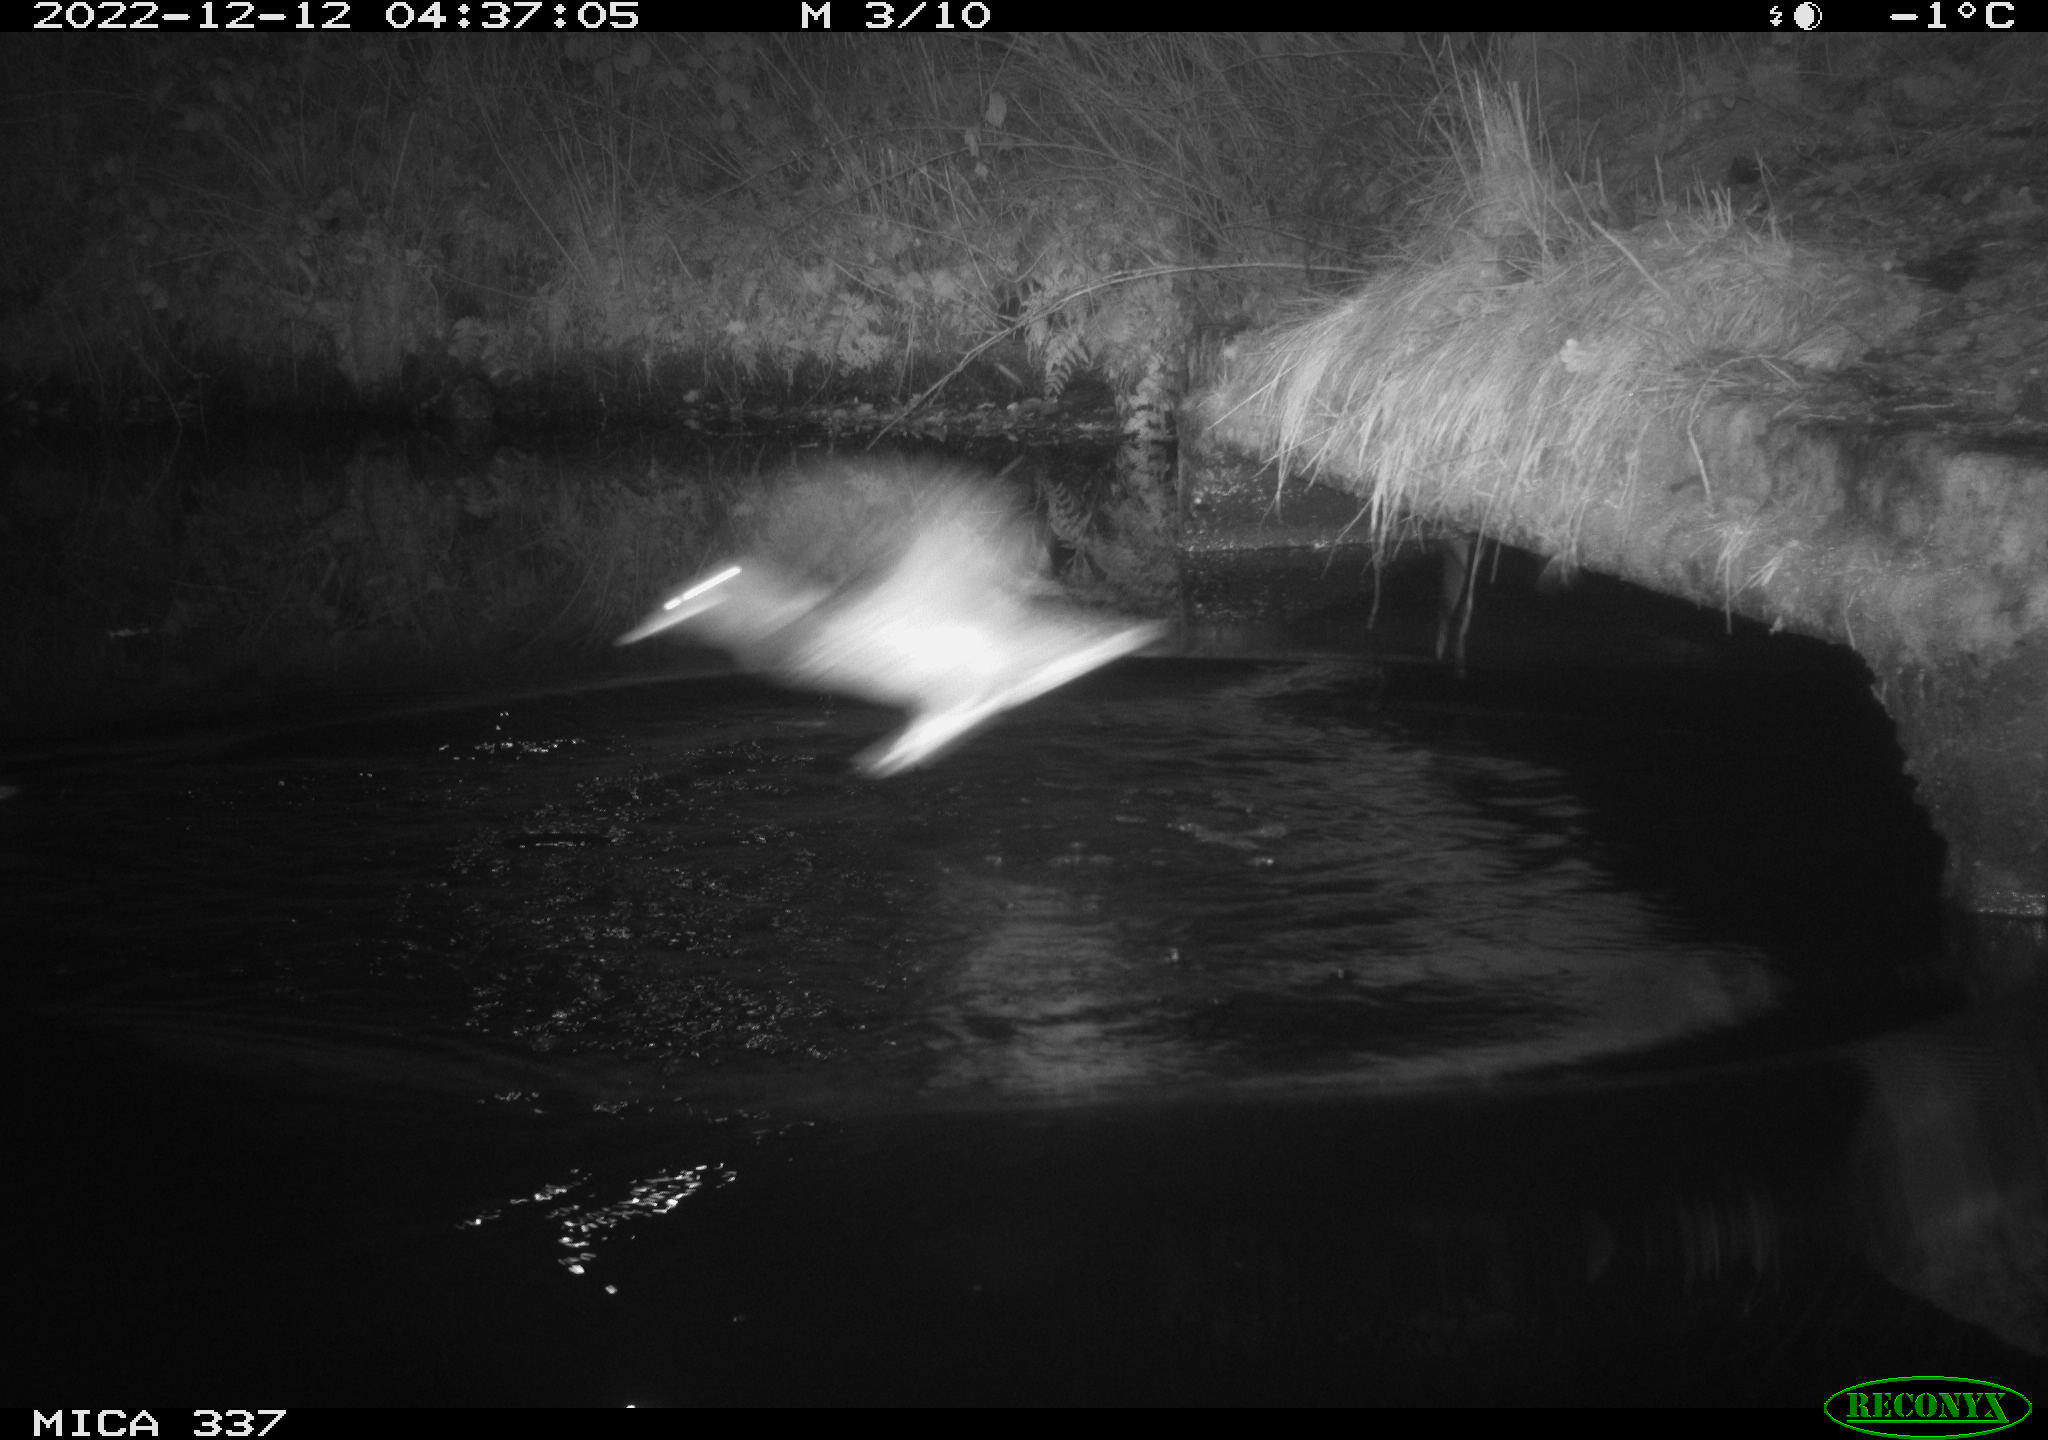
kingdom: Animalia
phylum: Chordata
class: Aves
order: Anseriformes
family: Anatidae
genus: Anas
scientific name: Anas
